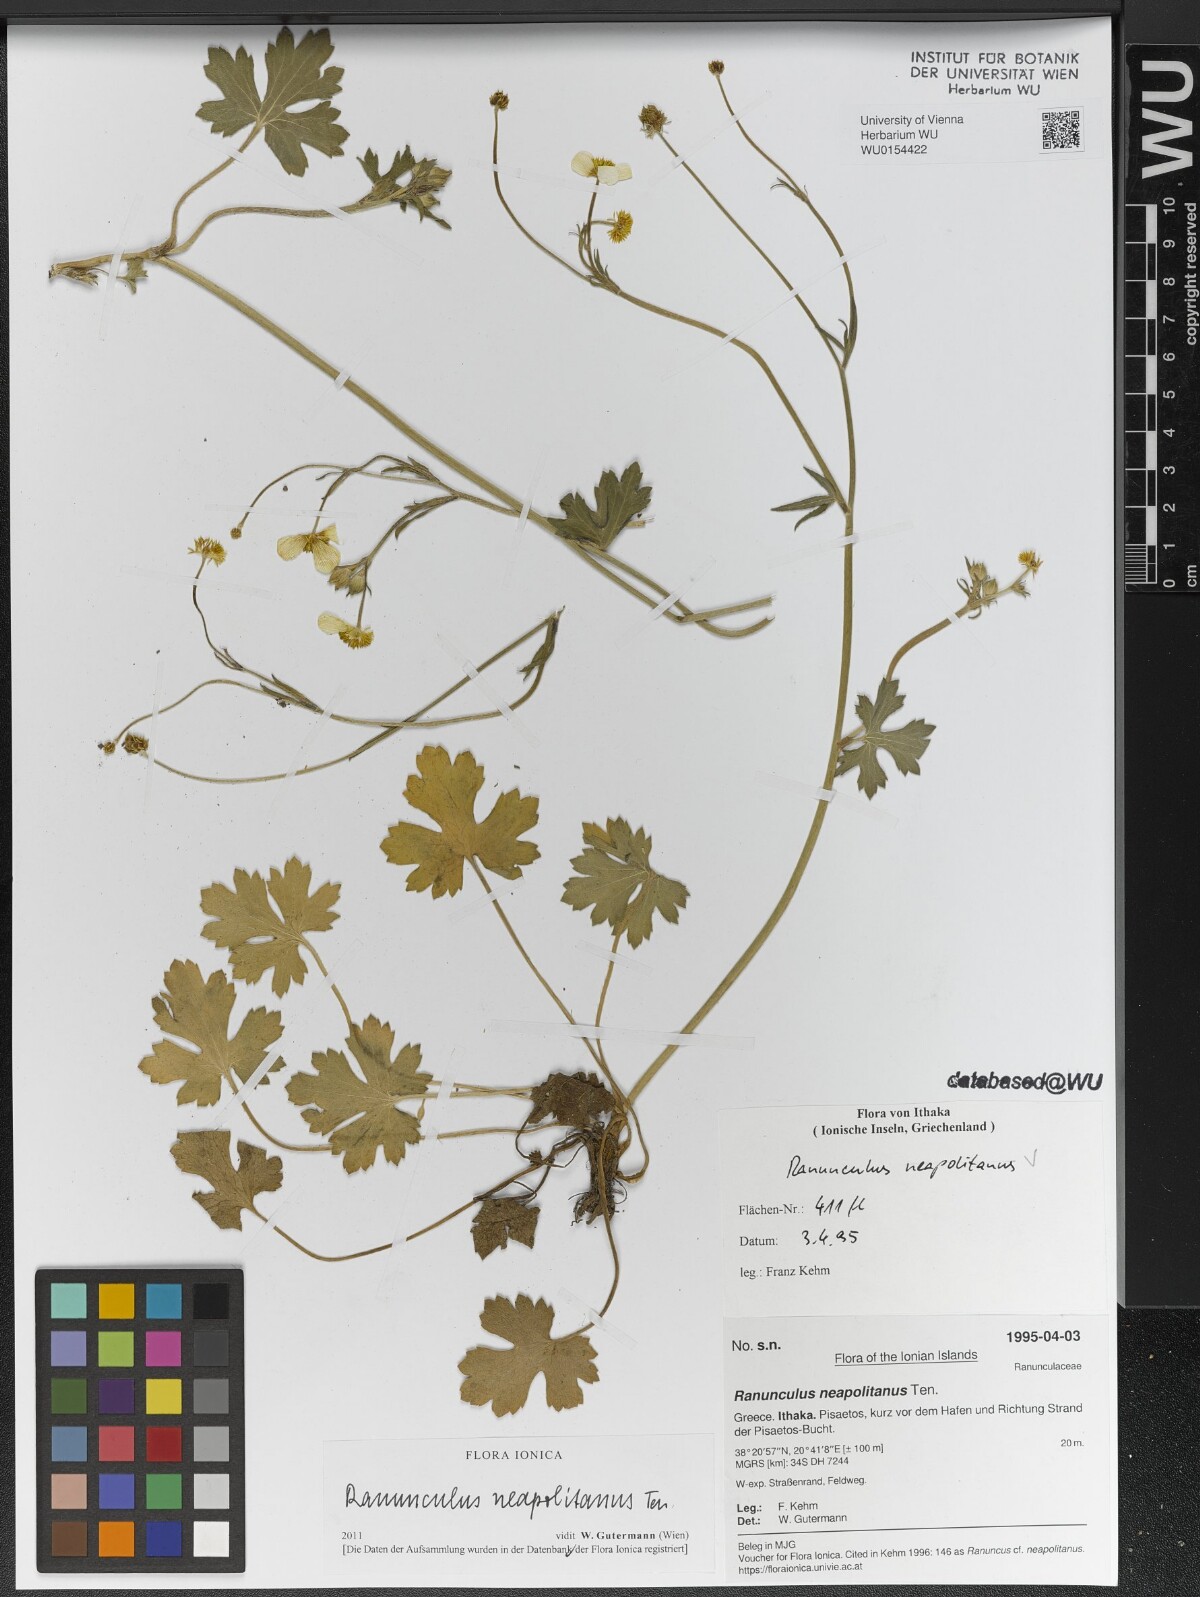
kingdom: Plantae
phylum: Tracheophyta
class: Magnoliopsida
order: Ranunculales
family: Ranunculaceae
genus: Ranunculus
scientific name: Ranunculus neapolitanus
